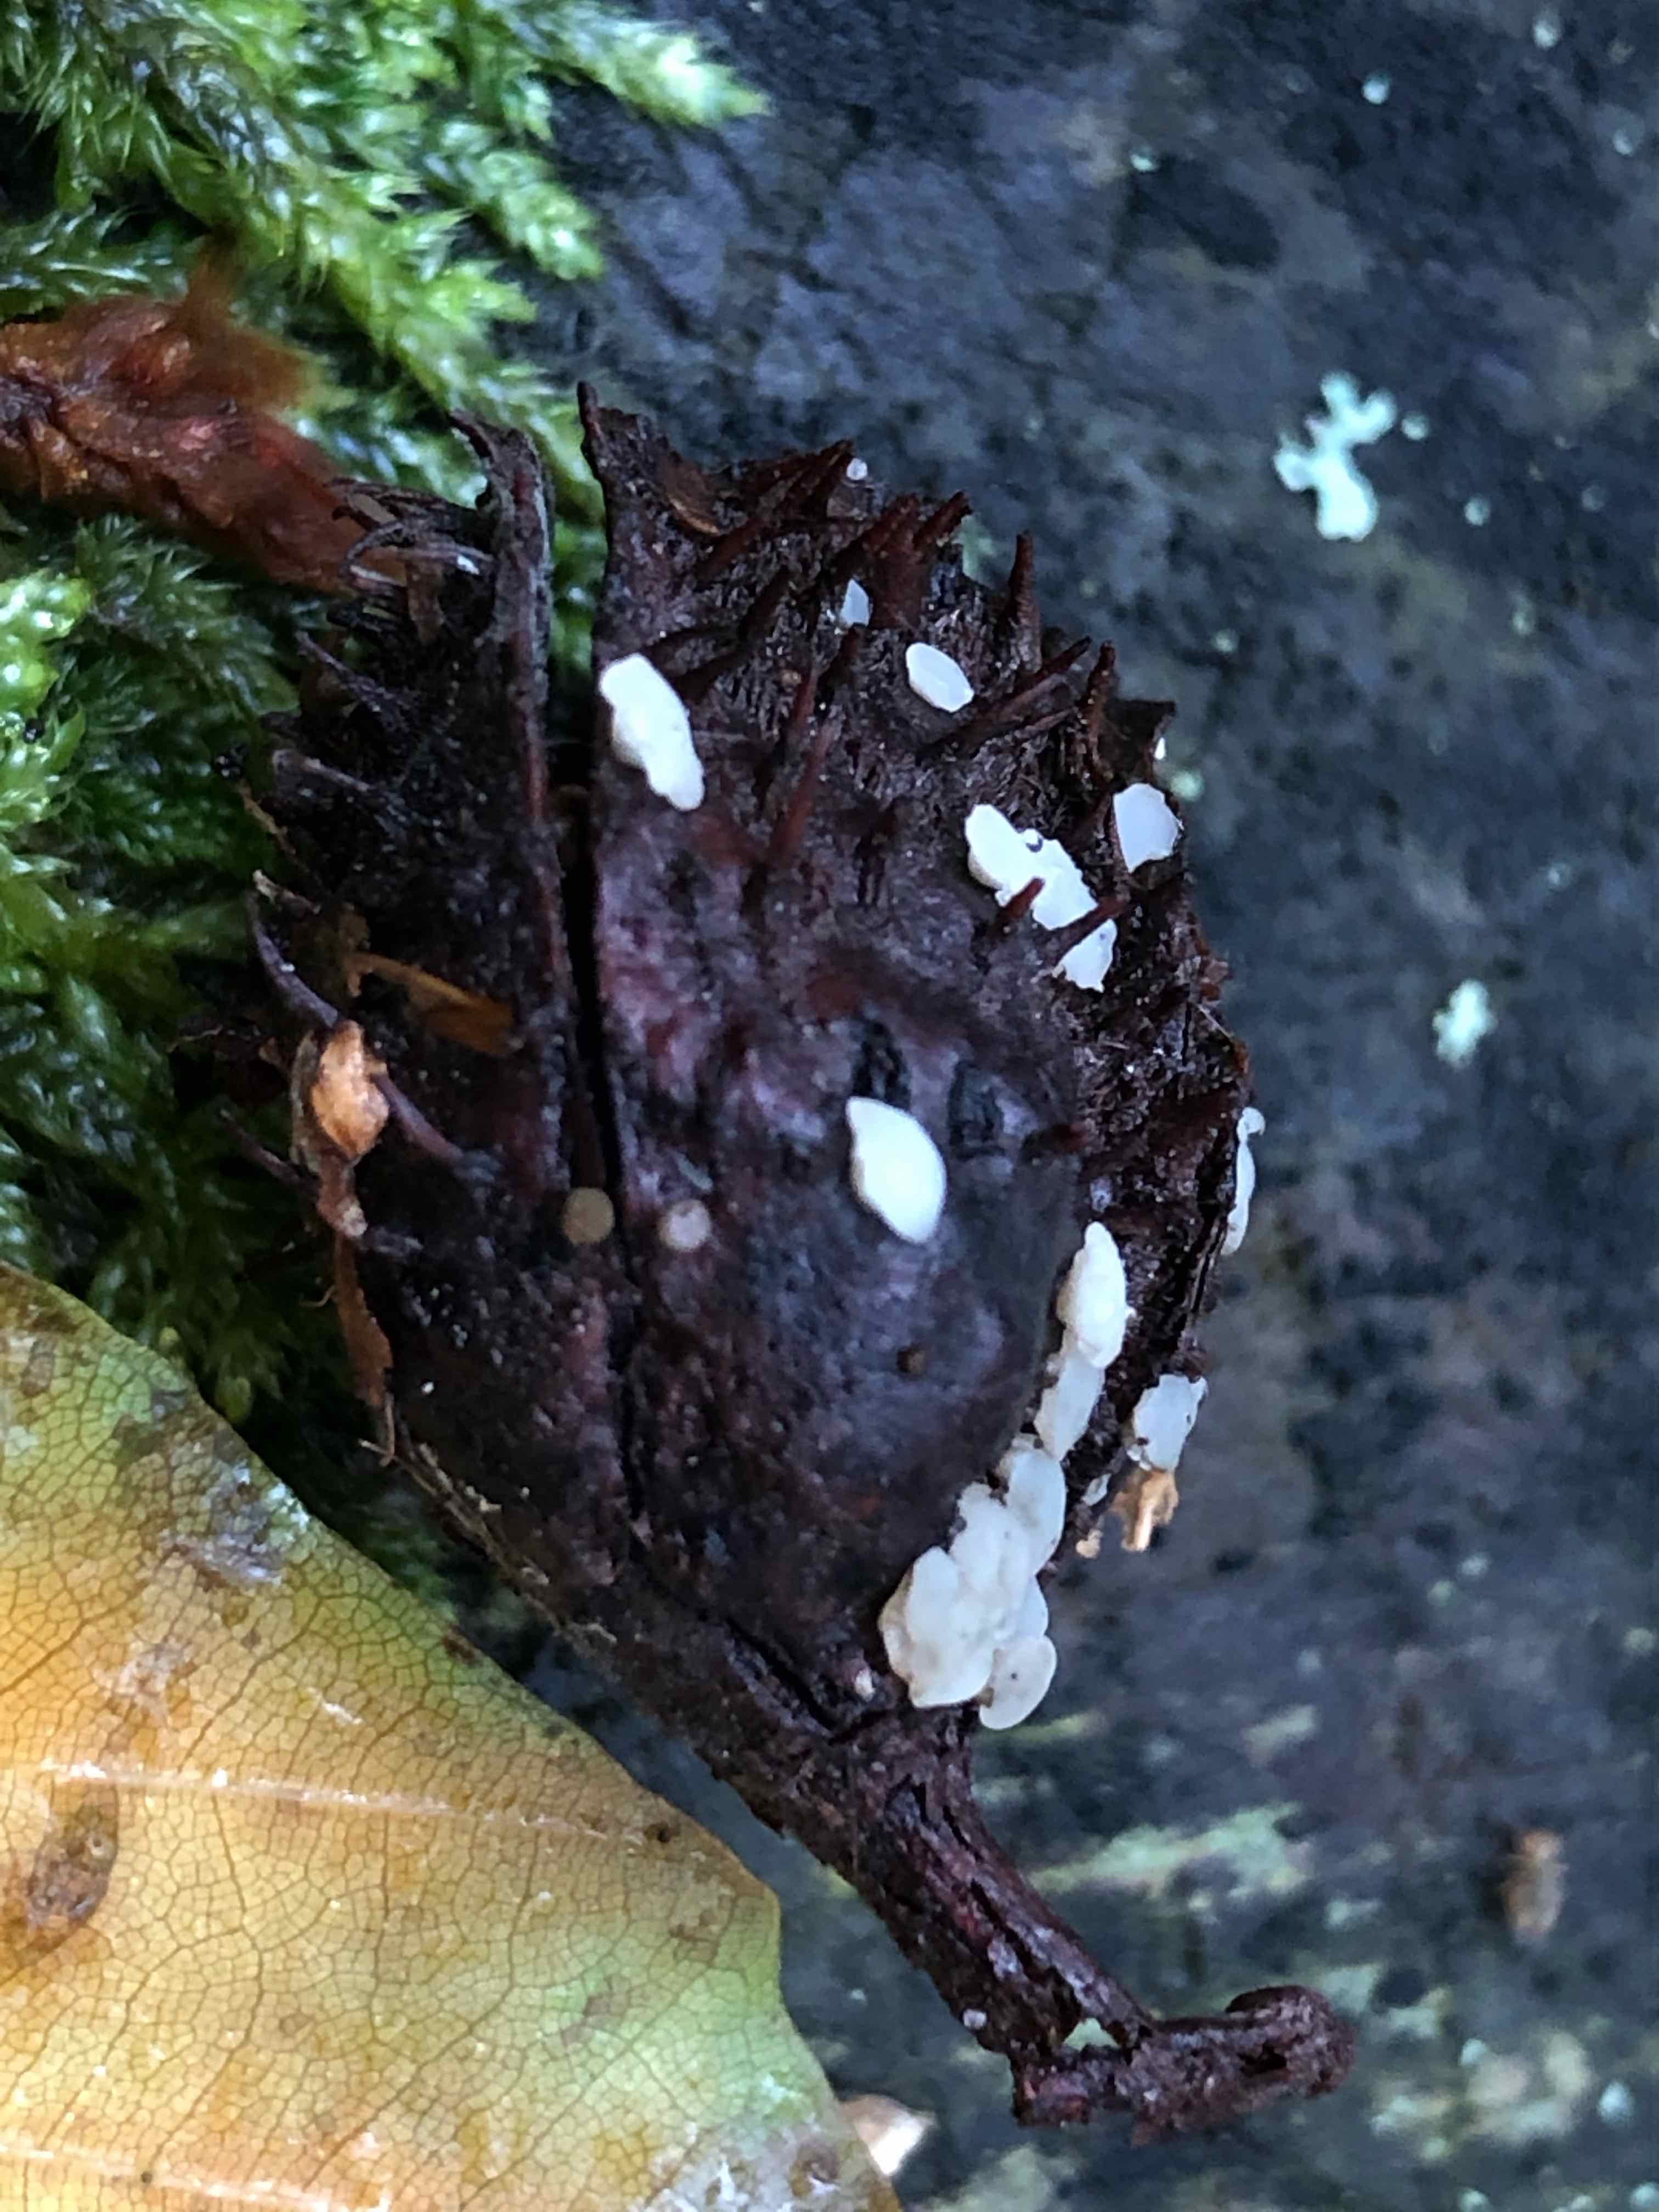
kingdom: Fungi
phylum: Ascomycota
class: Leotiomycetes
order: Helotiales
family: Helotiaceae
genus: Hymenoscyphus
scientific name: Hymenoscyphus fagineus
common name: vellugtende stilkskive
